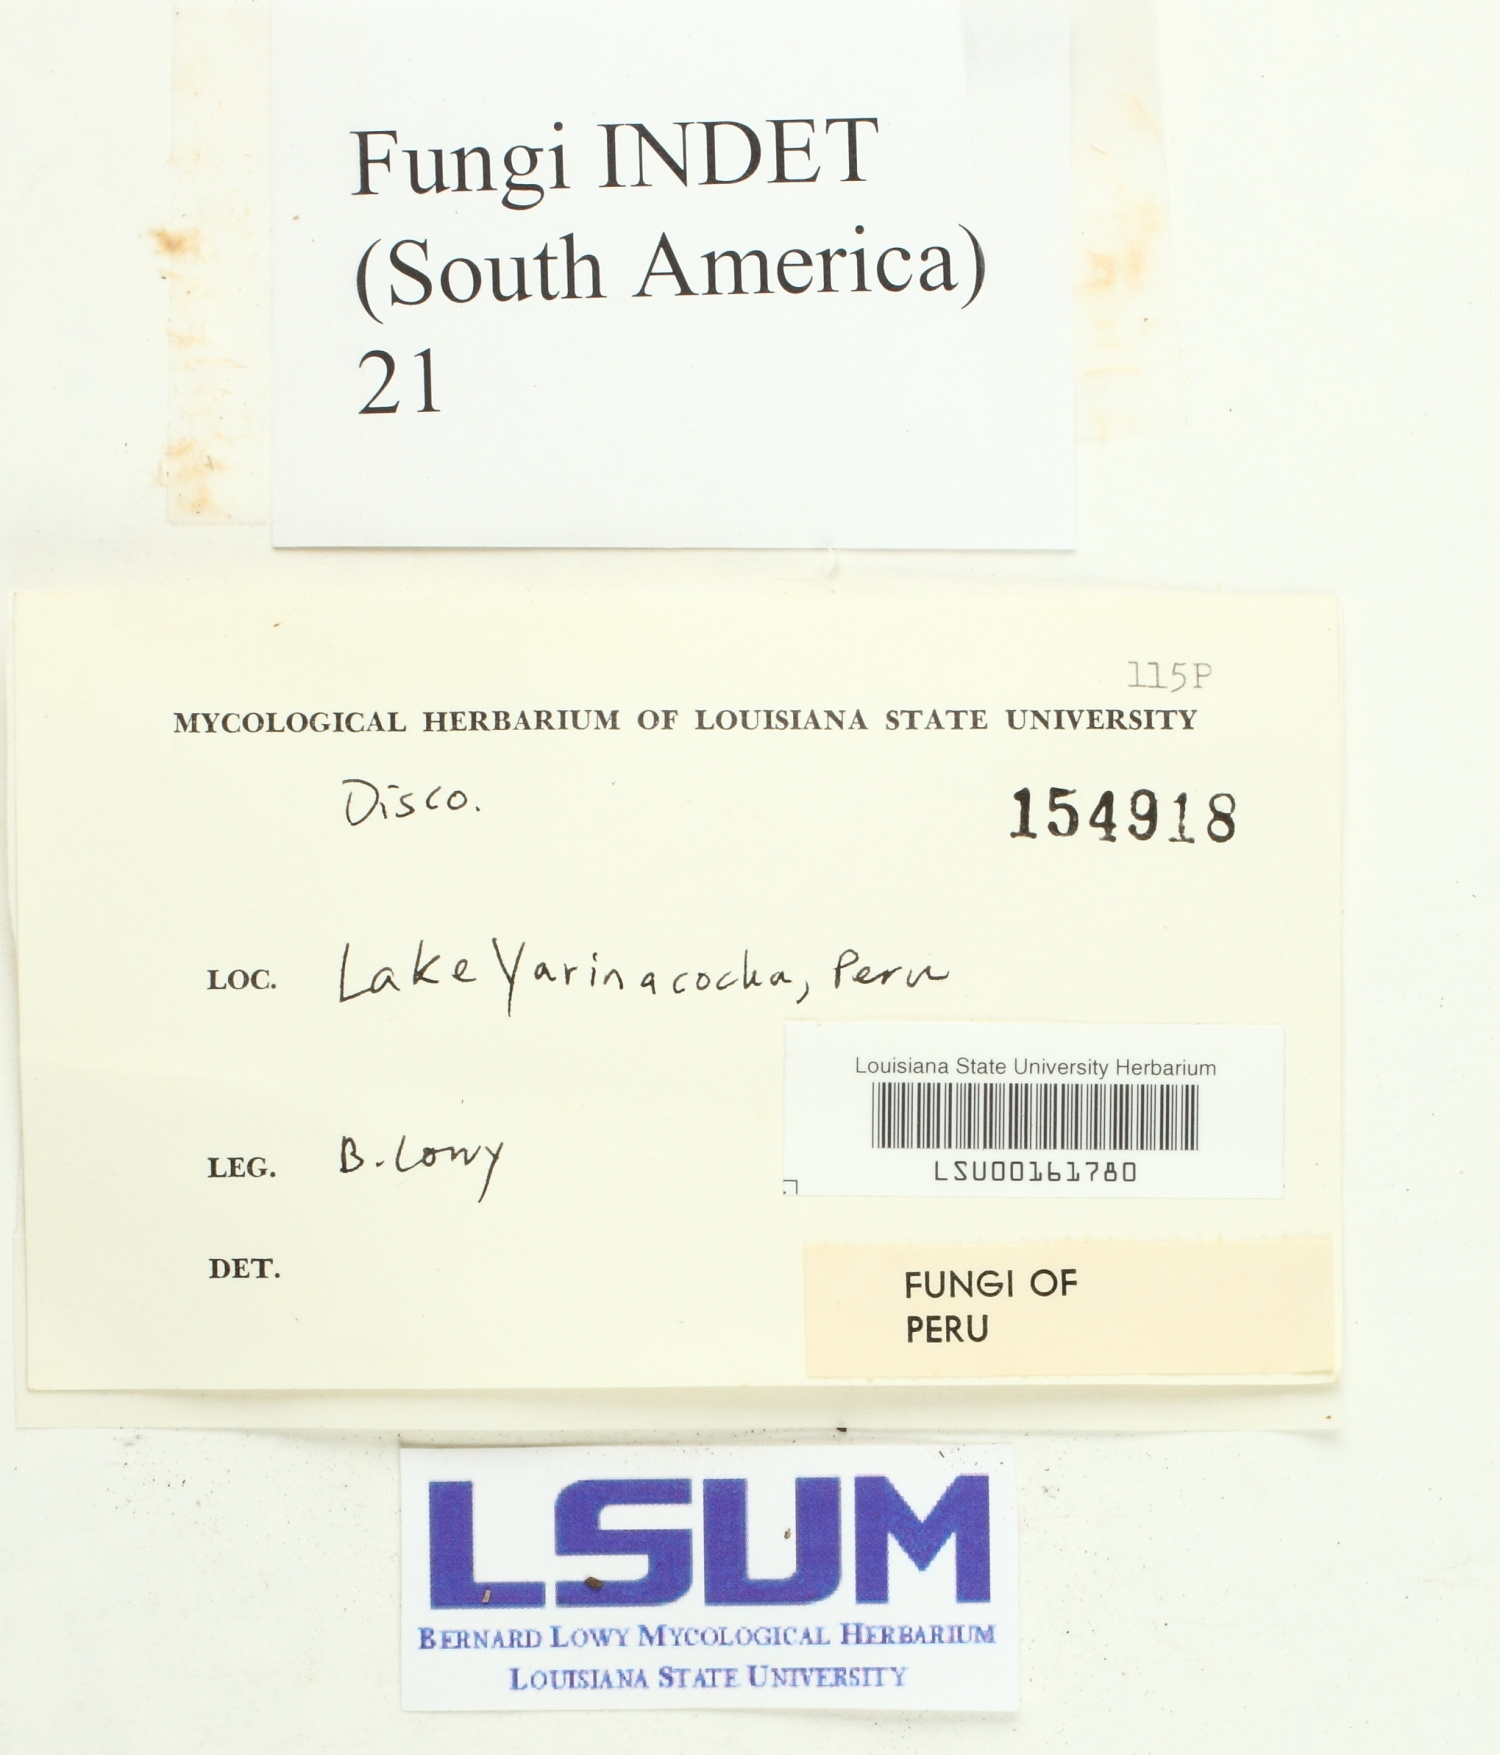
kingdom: Fungi
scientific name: Fungi
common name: Fungi
